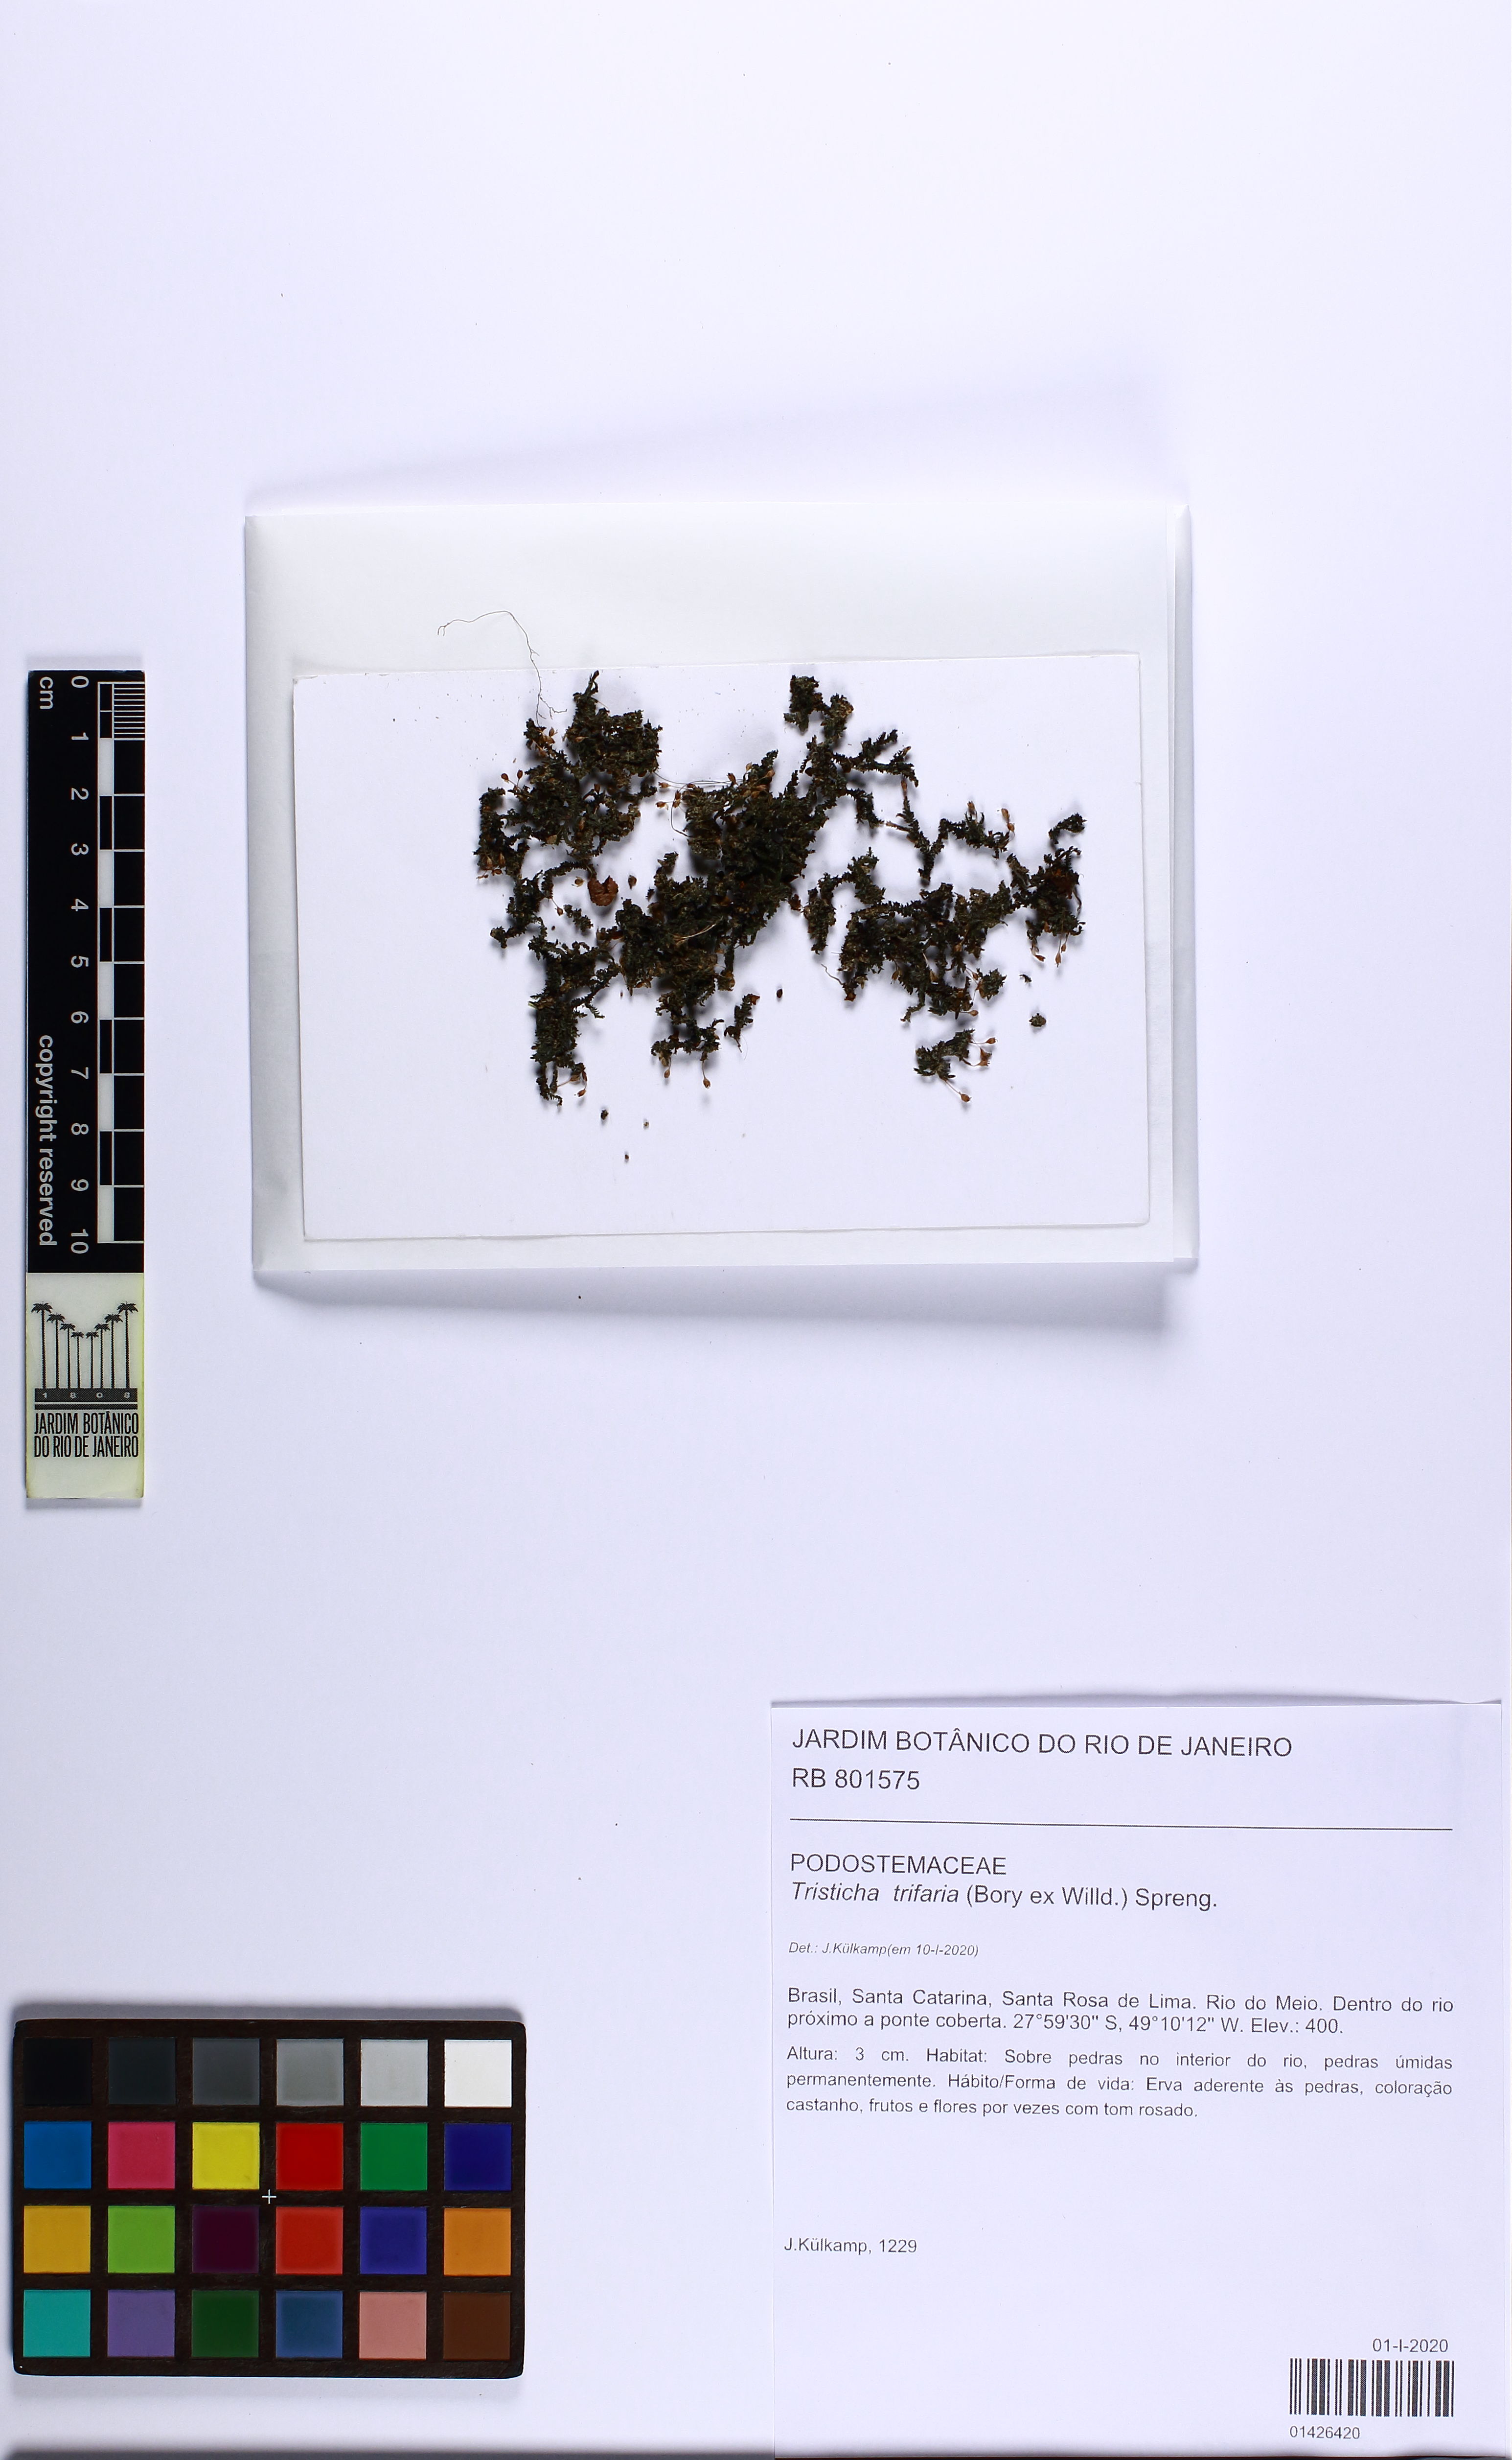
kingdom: Plantae
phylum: Tracheophyta
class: Magnoliopsida
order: Malpighiales
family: Podostemaceae
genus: Tristicha
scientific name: Tristicha trifaria
